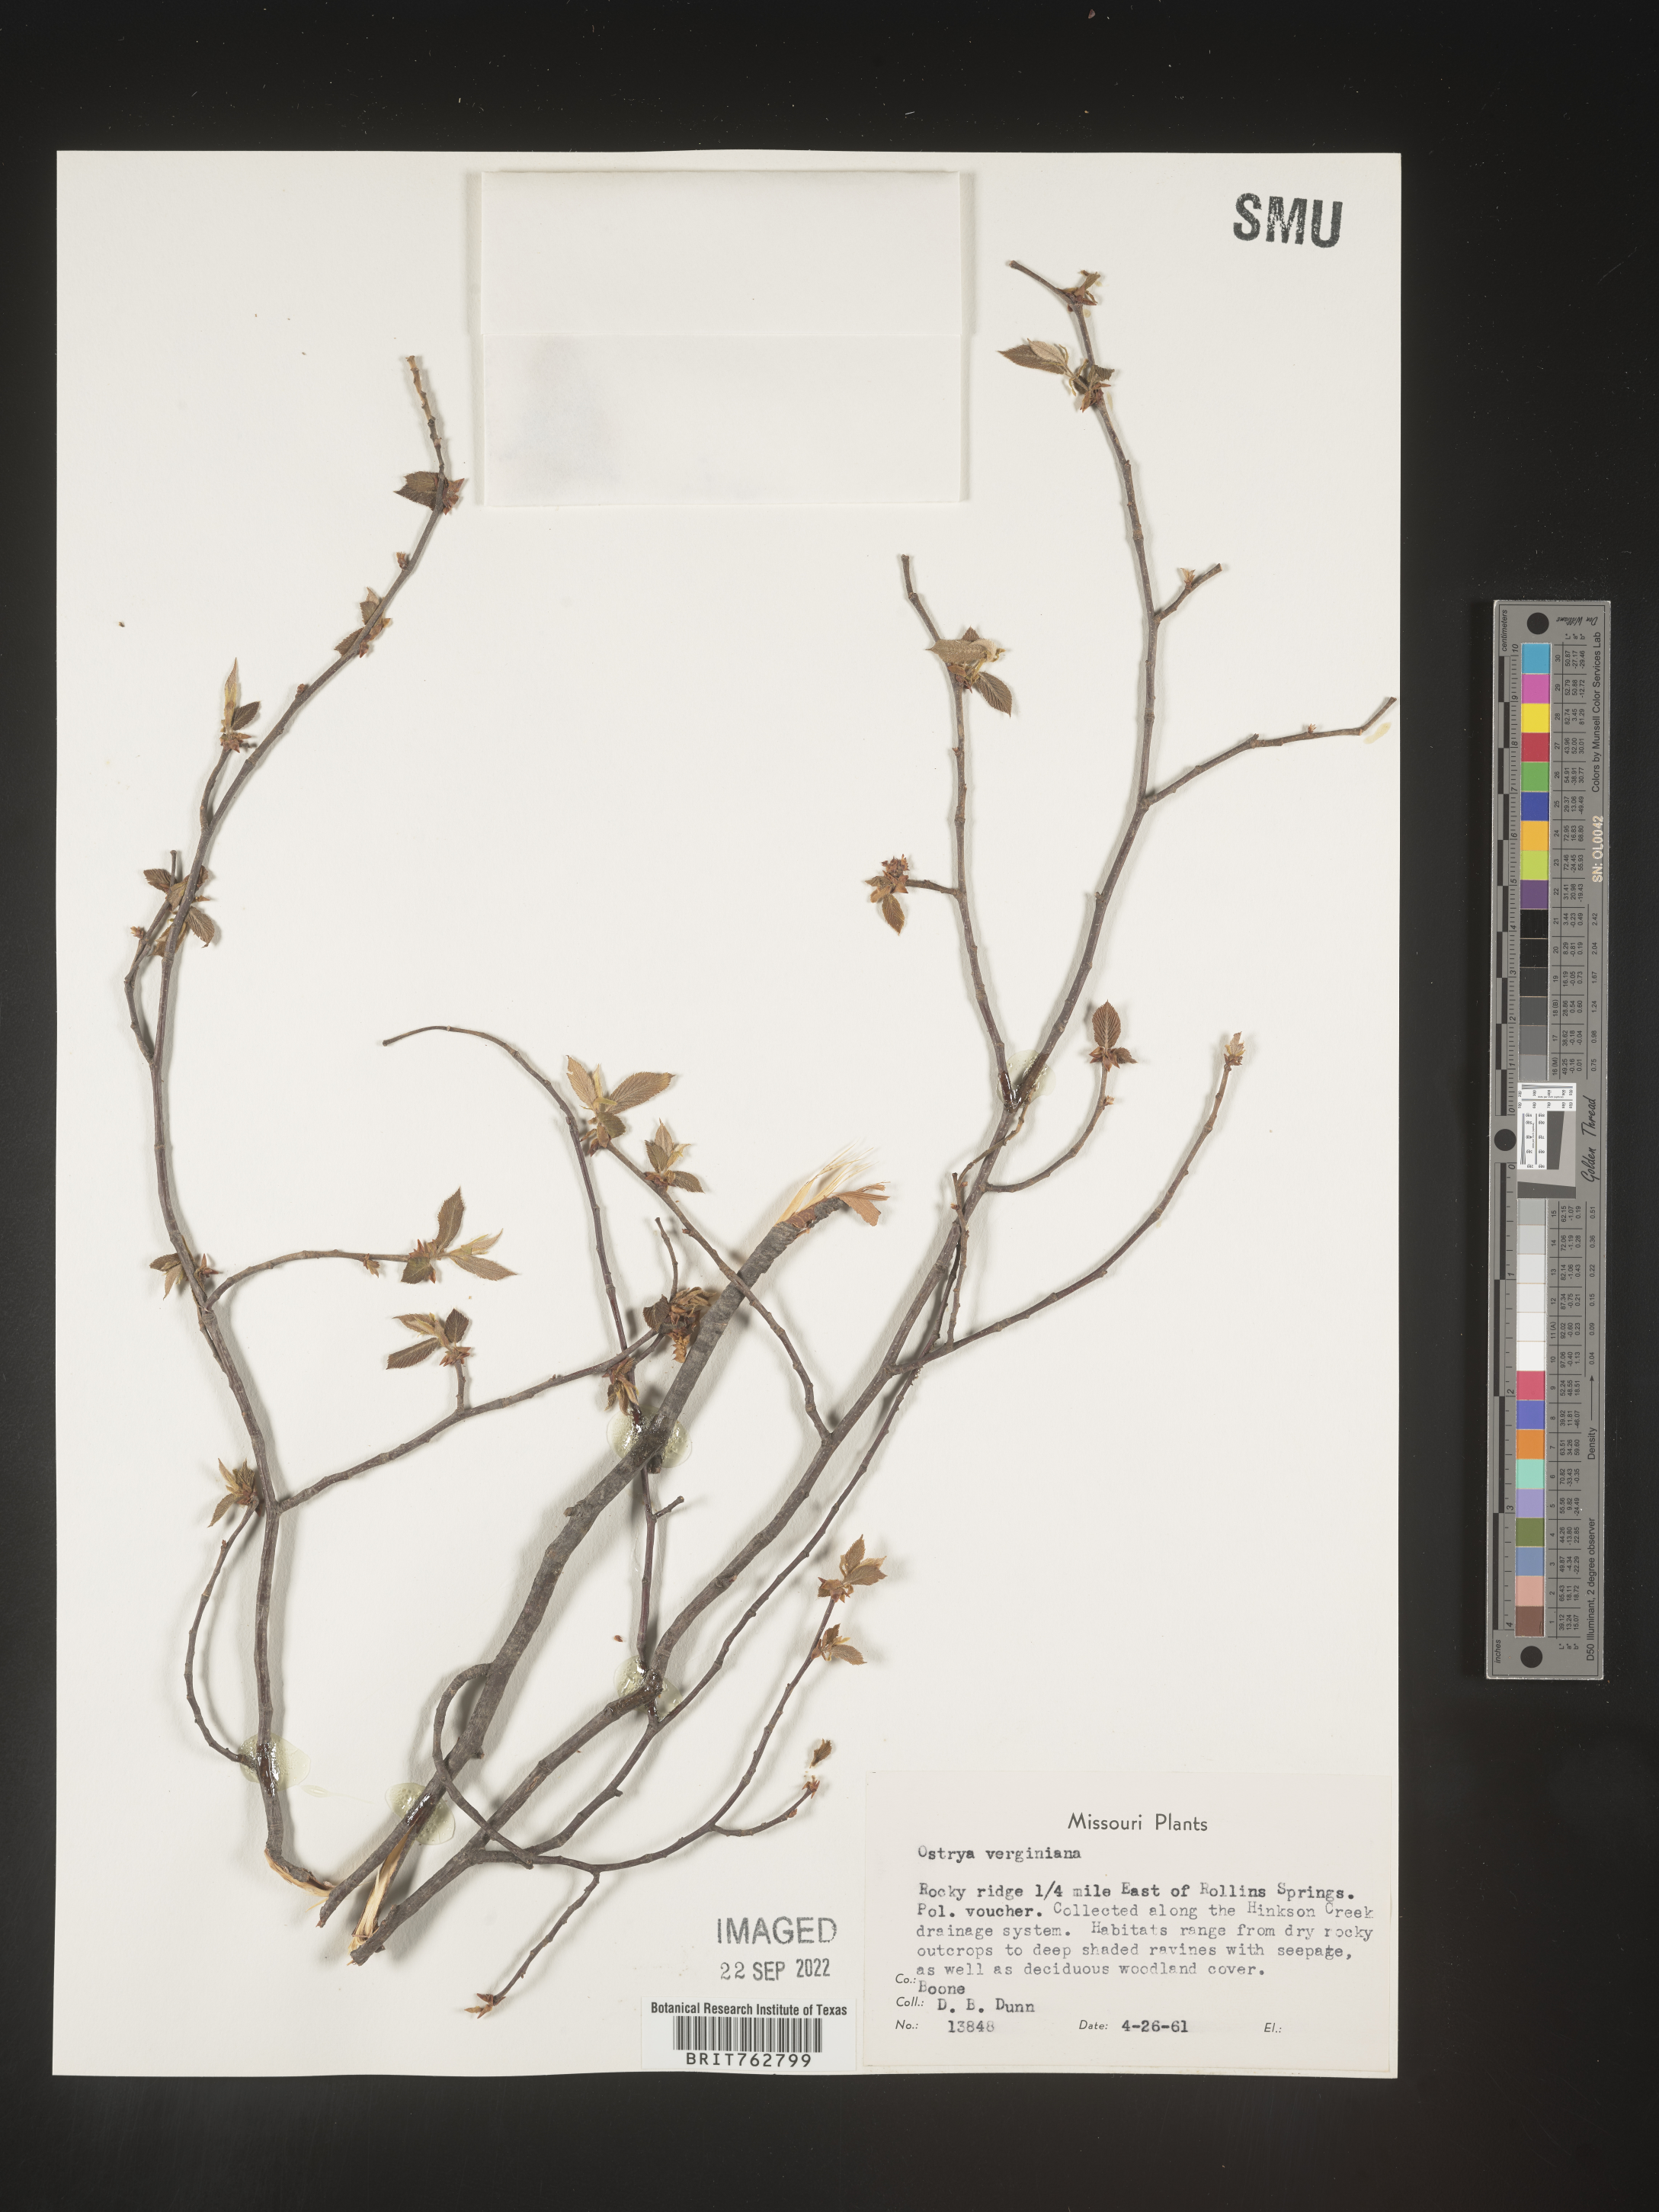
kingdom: Plantae
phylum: Tracheophyta
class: Magnoliopsida
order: Fagales
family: Betulaceae
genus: Ostrya
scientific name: Ostrya virginiana
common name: Ironwood
